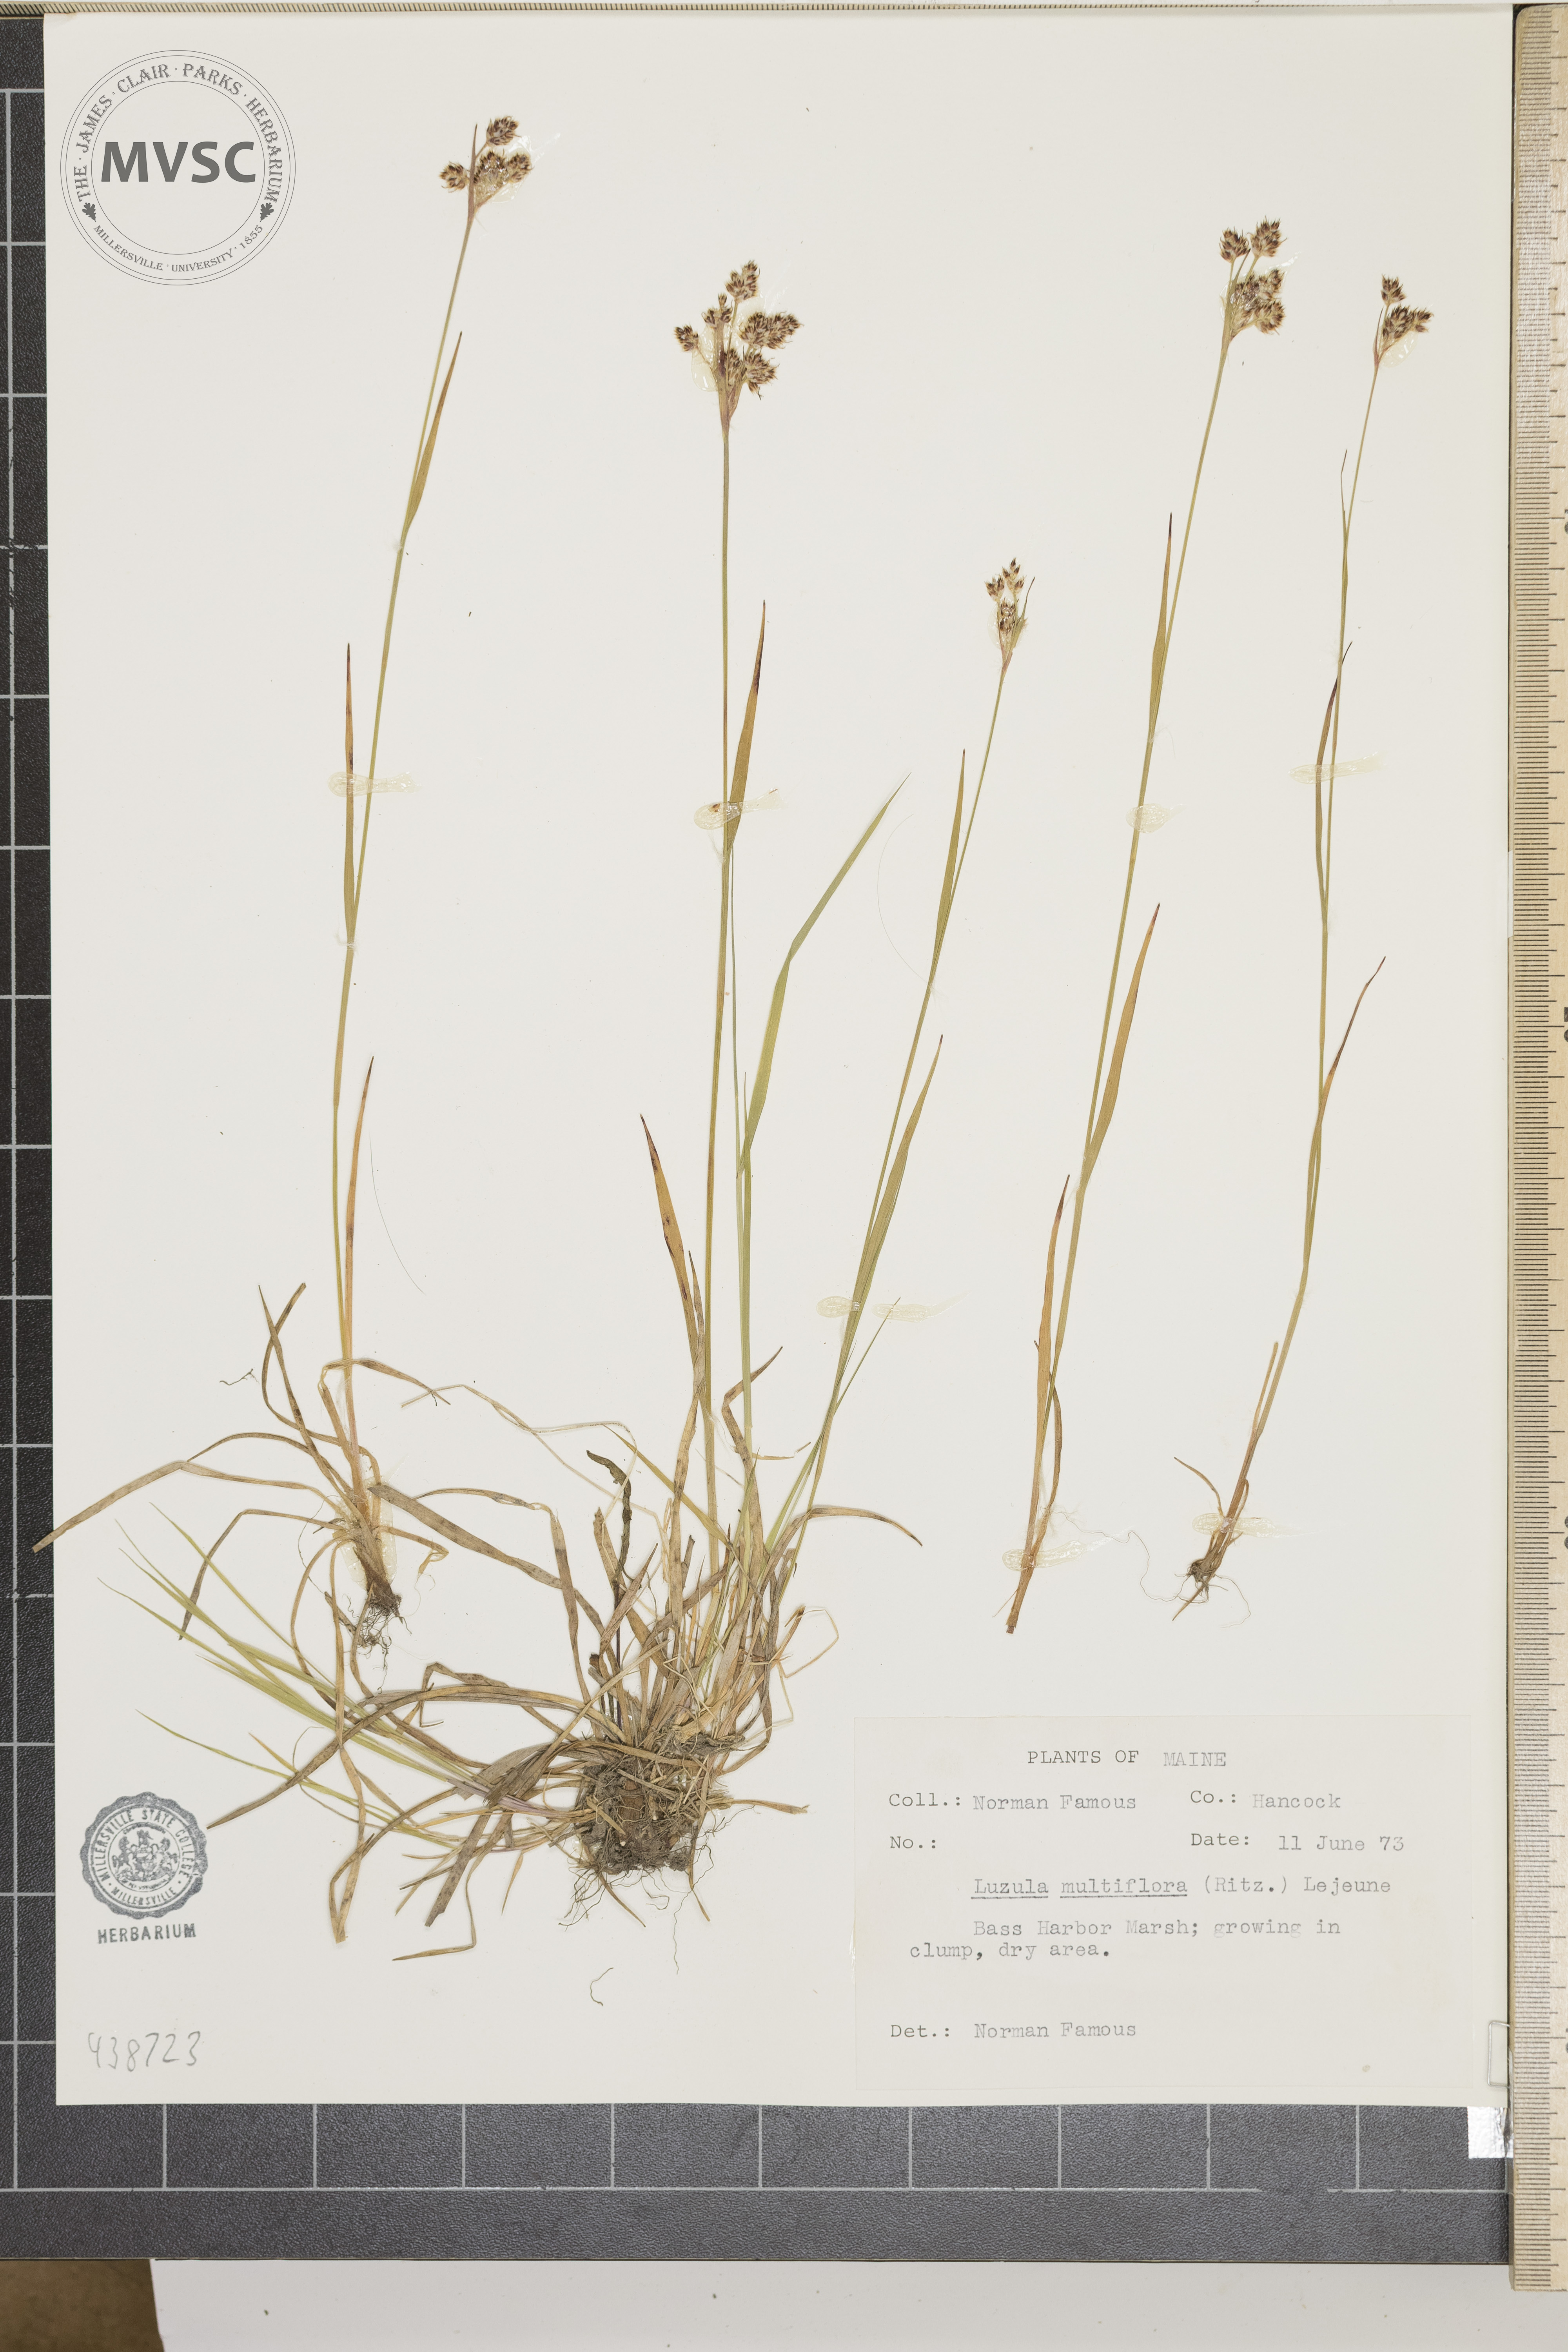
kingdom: Plantae
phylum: Tracheophyta
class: Liliopsida
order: Poales
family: Juncaceae
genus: Luzula
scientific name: Luzula multiflora
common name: Heath wood-rush
